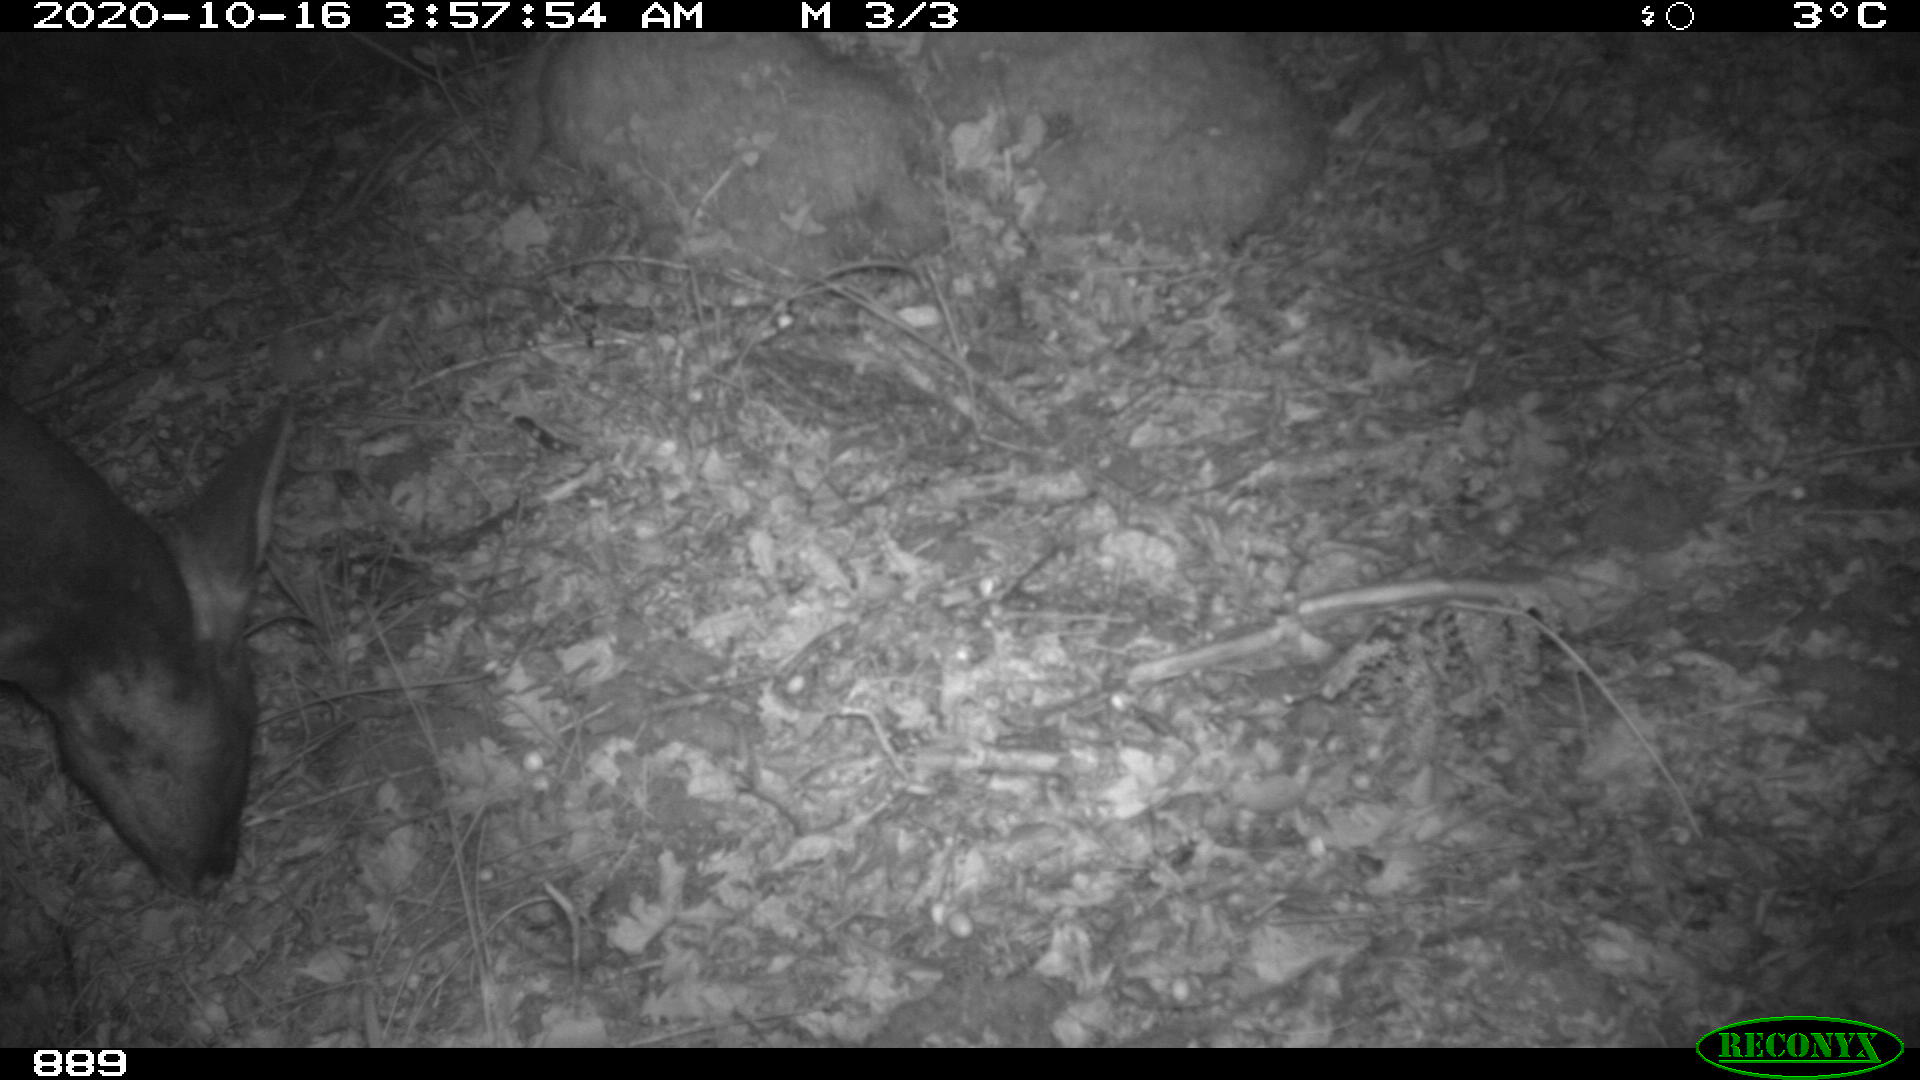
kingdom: Animalia
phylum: Chordata
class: Mammalia
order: Artiodactyla
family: Cervidae
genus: Capreolus
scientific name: Capreolus capreolus
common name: Western roe deer
